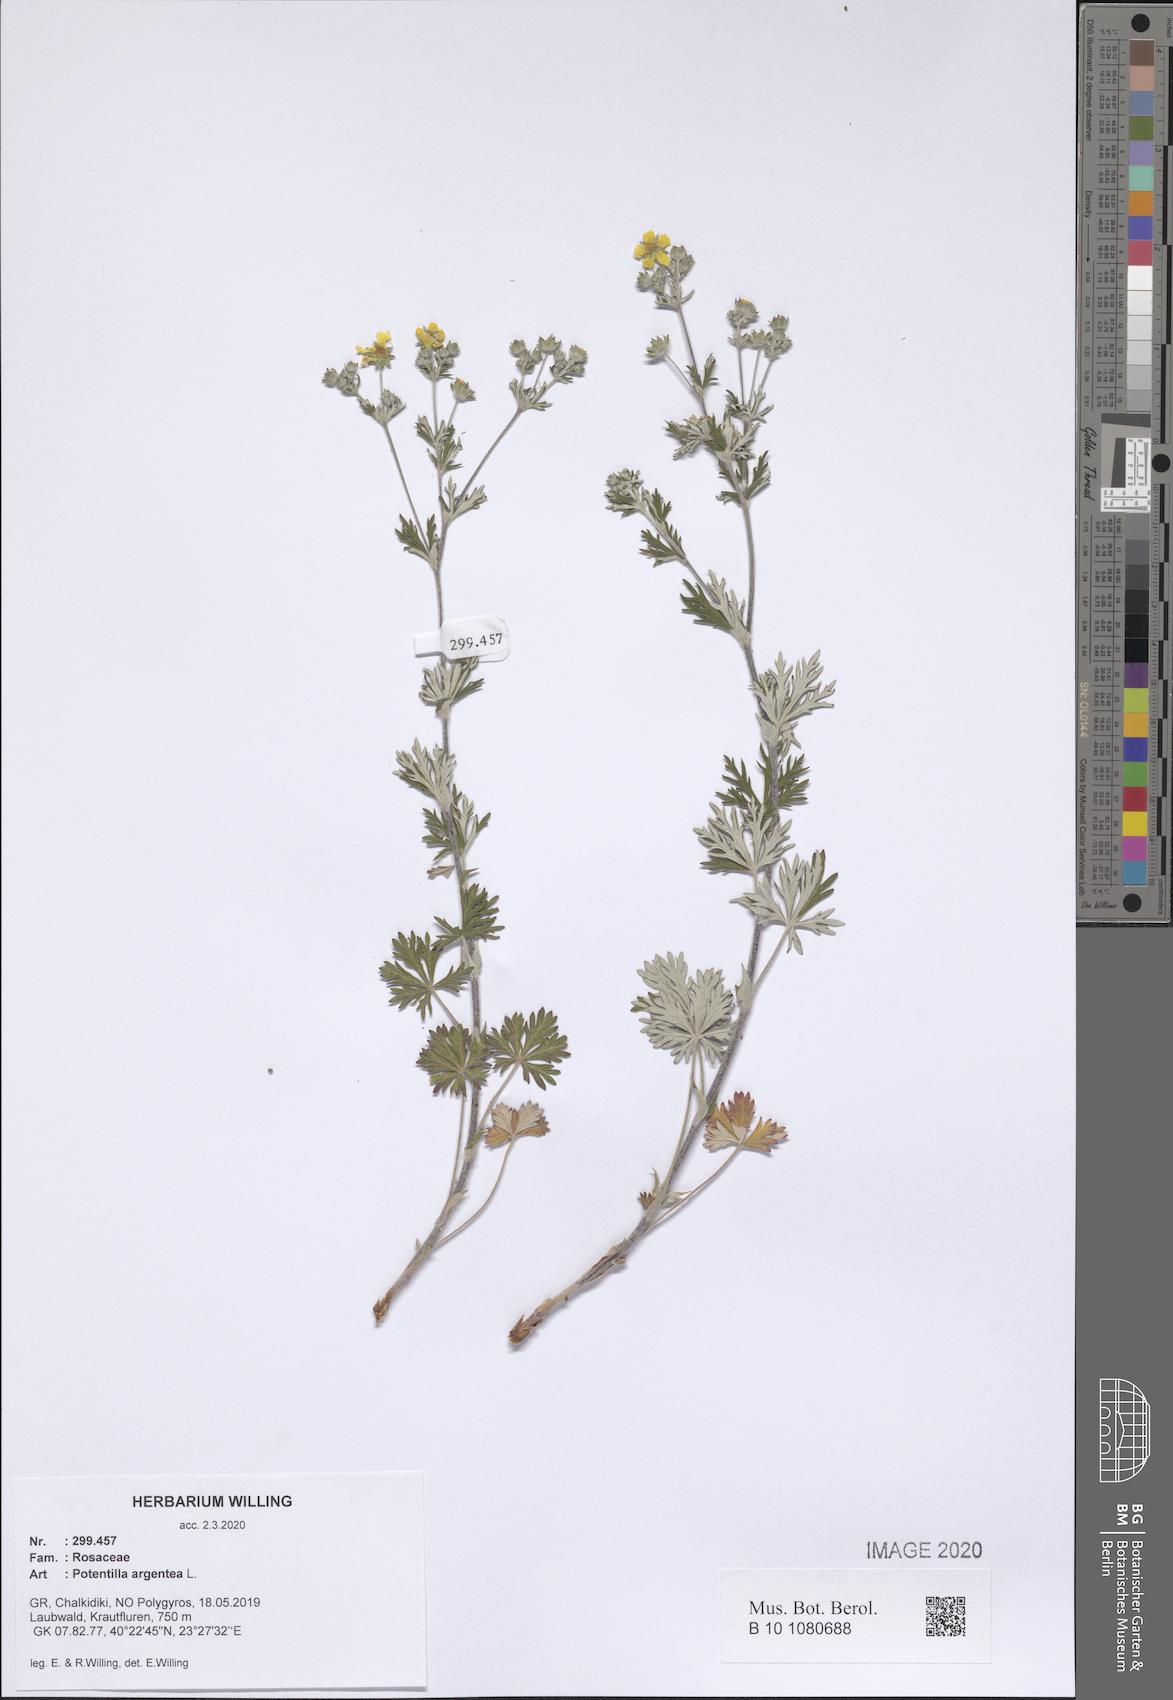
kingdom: Plantae
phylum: Tracheophyta
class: Magnoliopsida
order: Rosales
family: Rosaceae
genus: Potentilla
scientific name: Potentilla argentea
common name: Hoary cinquefoil
